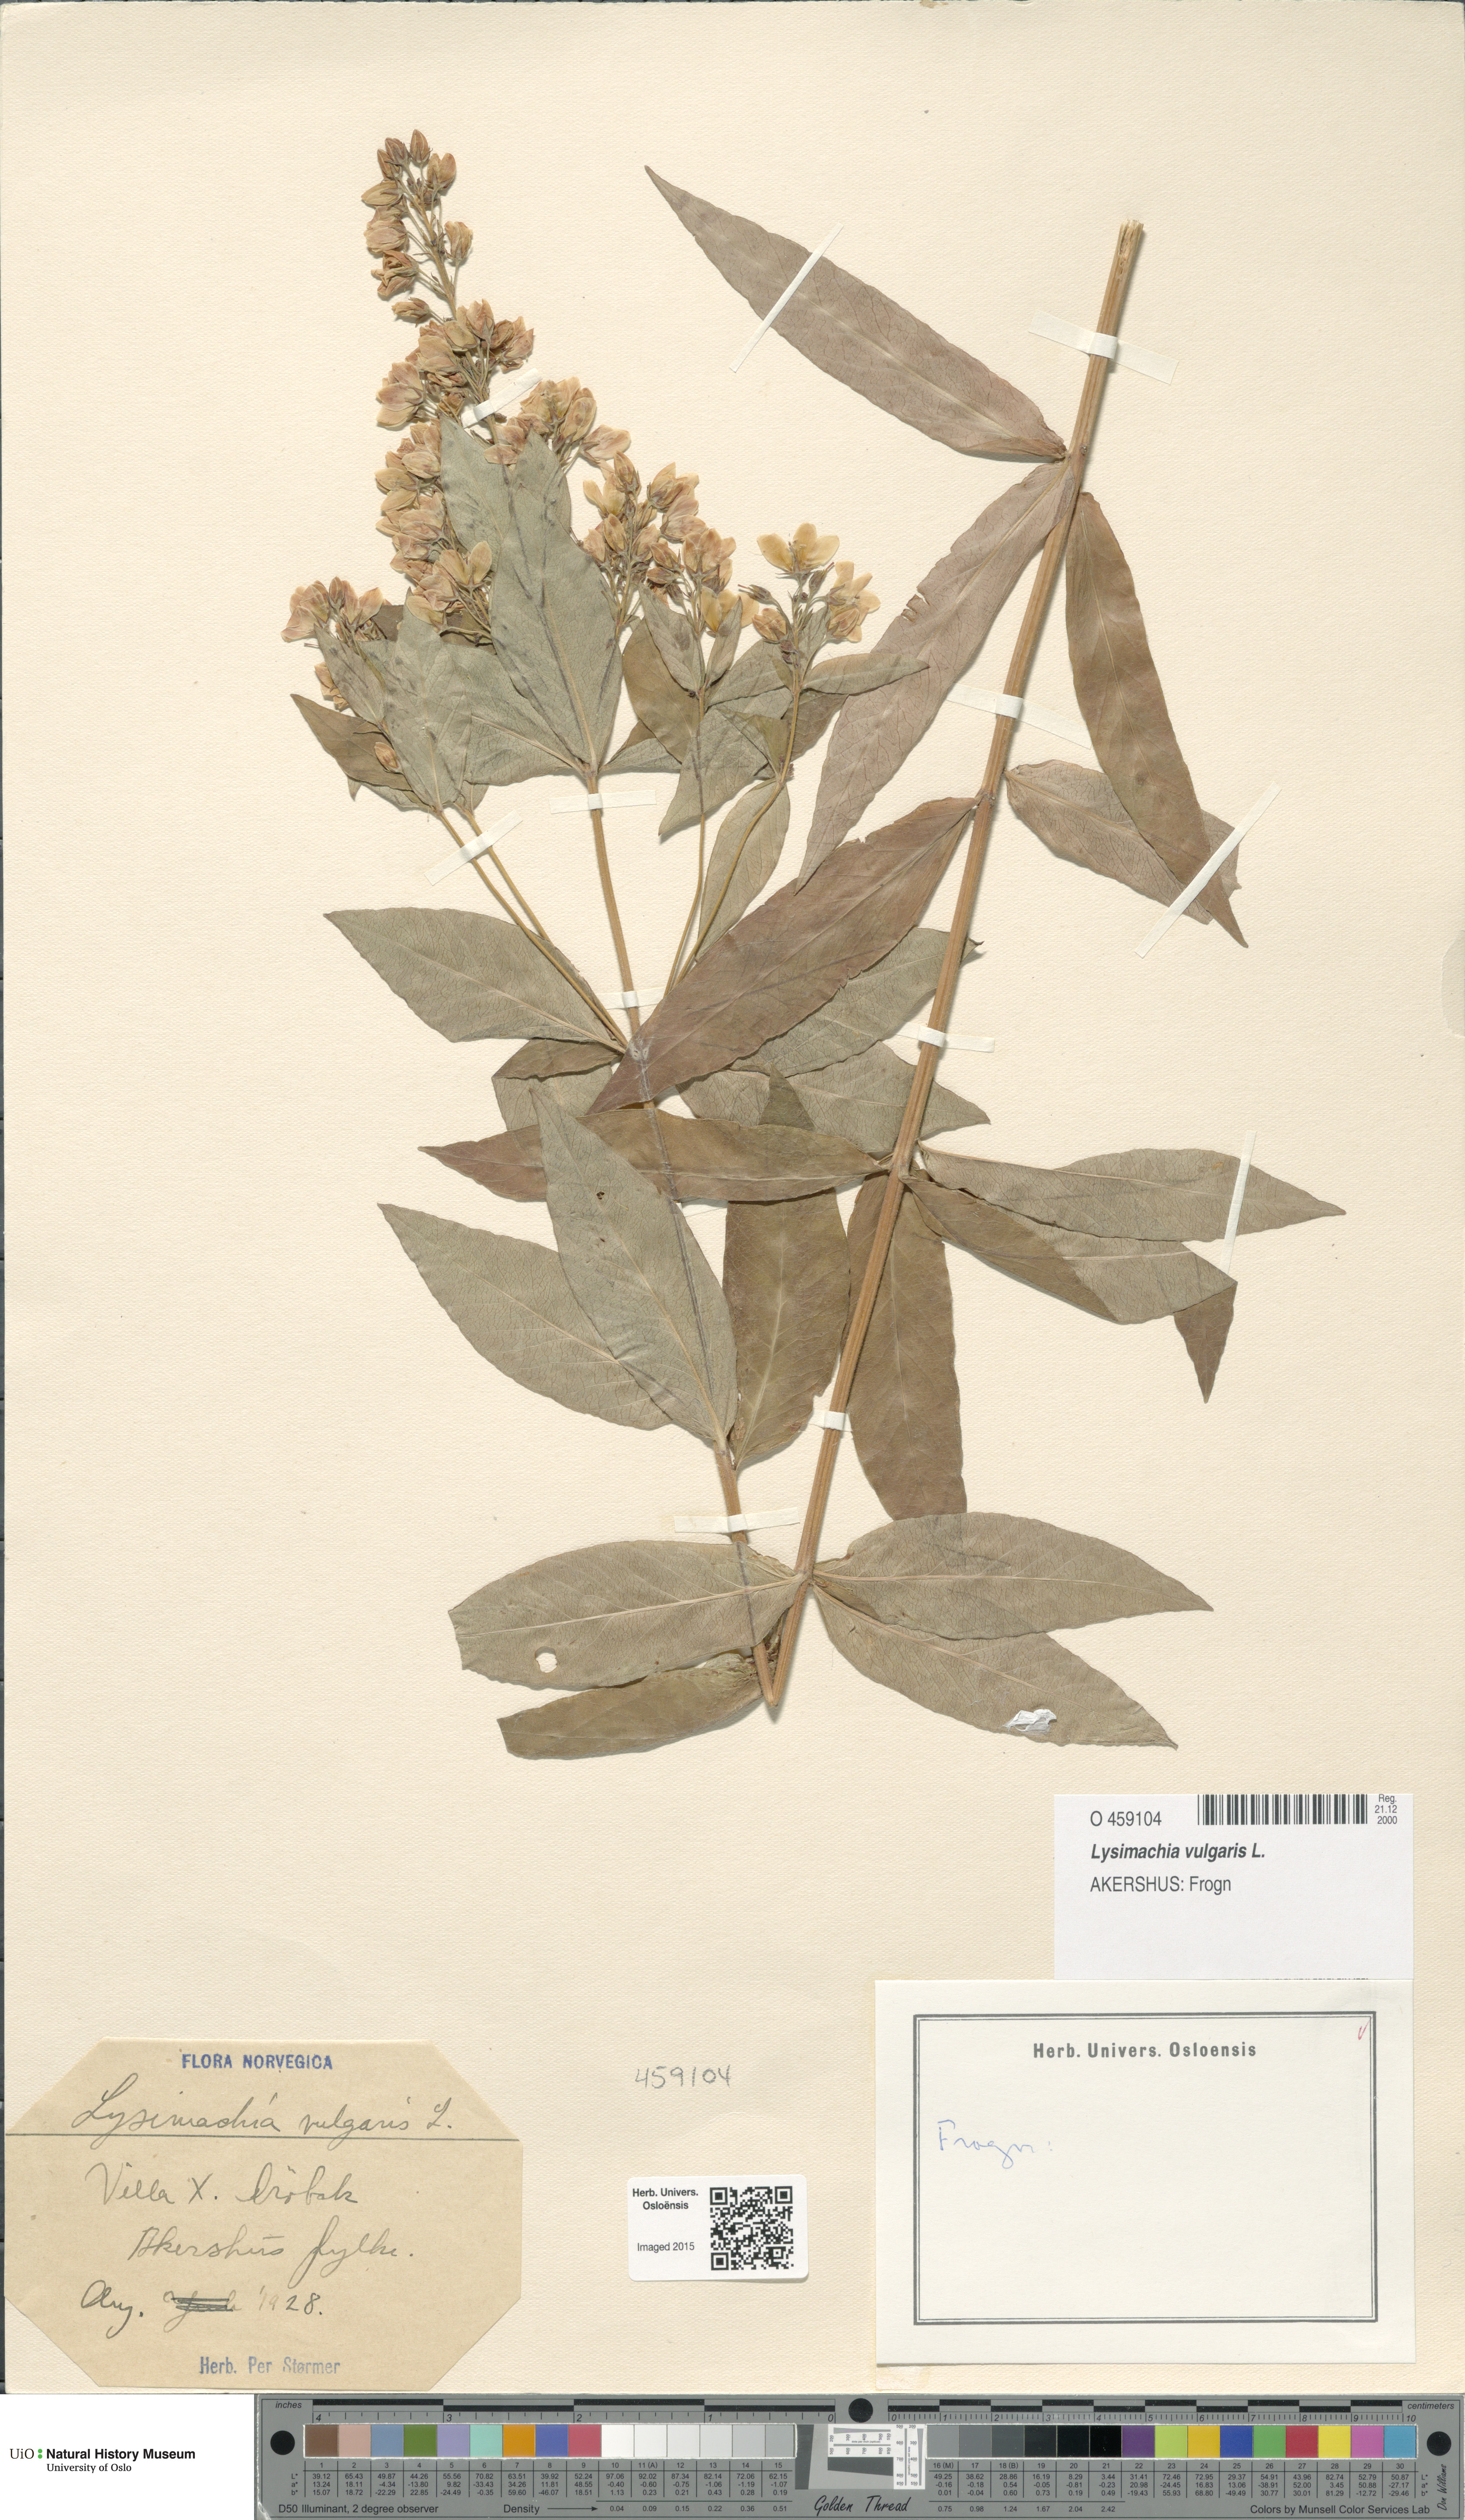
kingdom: Plantae
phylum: Tracheophyta
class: Magnoliopsida
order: Ericales
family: Primulaceae
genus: Lysimachia
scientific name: Lysimachia vulgaris
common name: Yellow loosestrife
